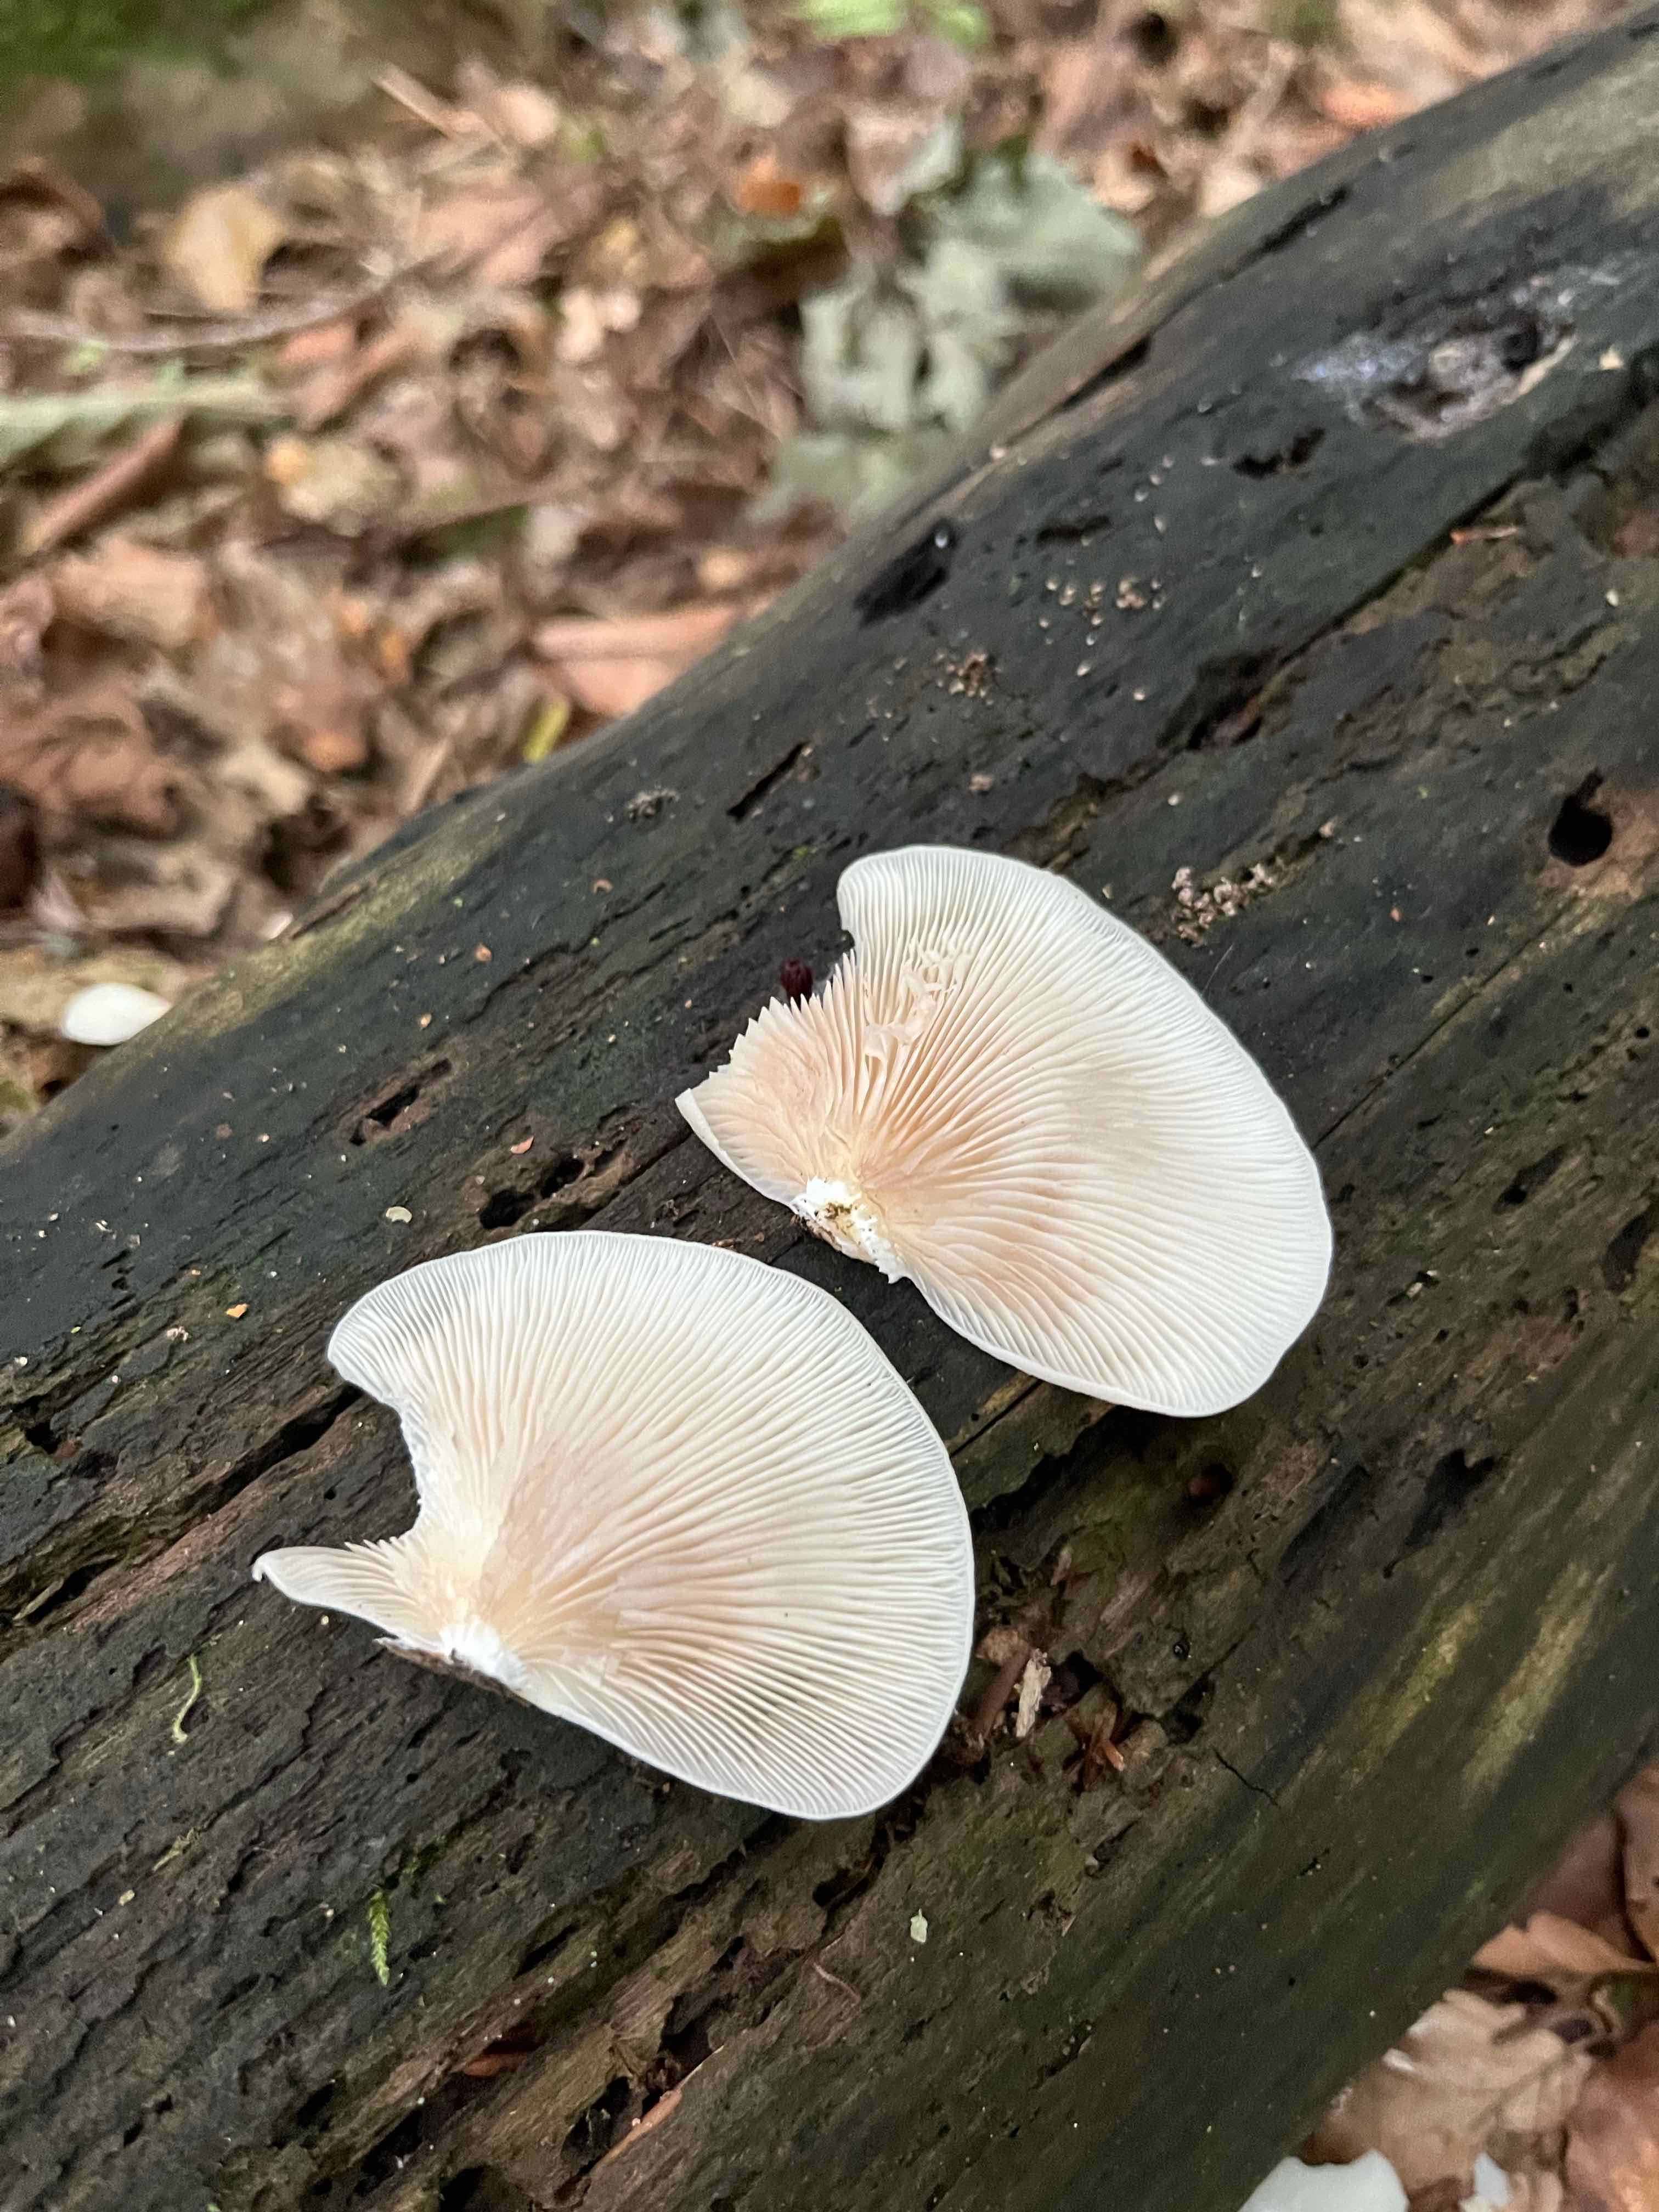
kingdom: Fungi
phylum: Basidiomycota
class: Agaricomycetes
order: Agaricales
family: Crepidotaceae
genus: Crepidotus
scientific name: Crepidotus mollis
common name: blød muslingesvamp
